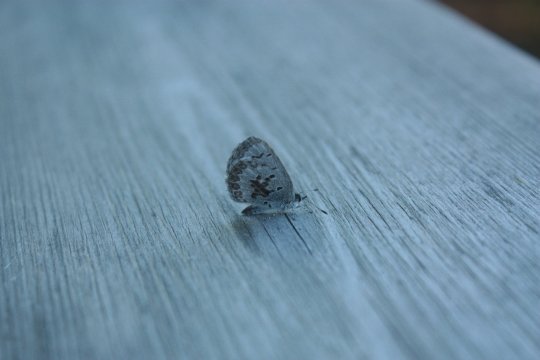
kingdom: Animalia
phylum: Arthropoda
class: Insecta
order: Lepidoptera
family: Lycaenidae
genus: Celastrina
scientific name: Celastrina ladon
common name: Spring Azure
